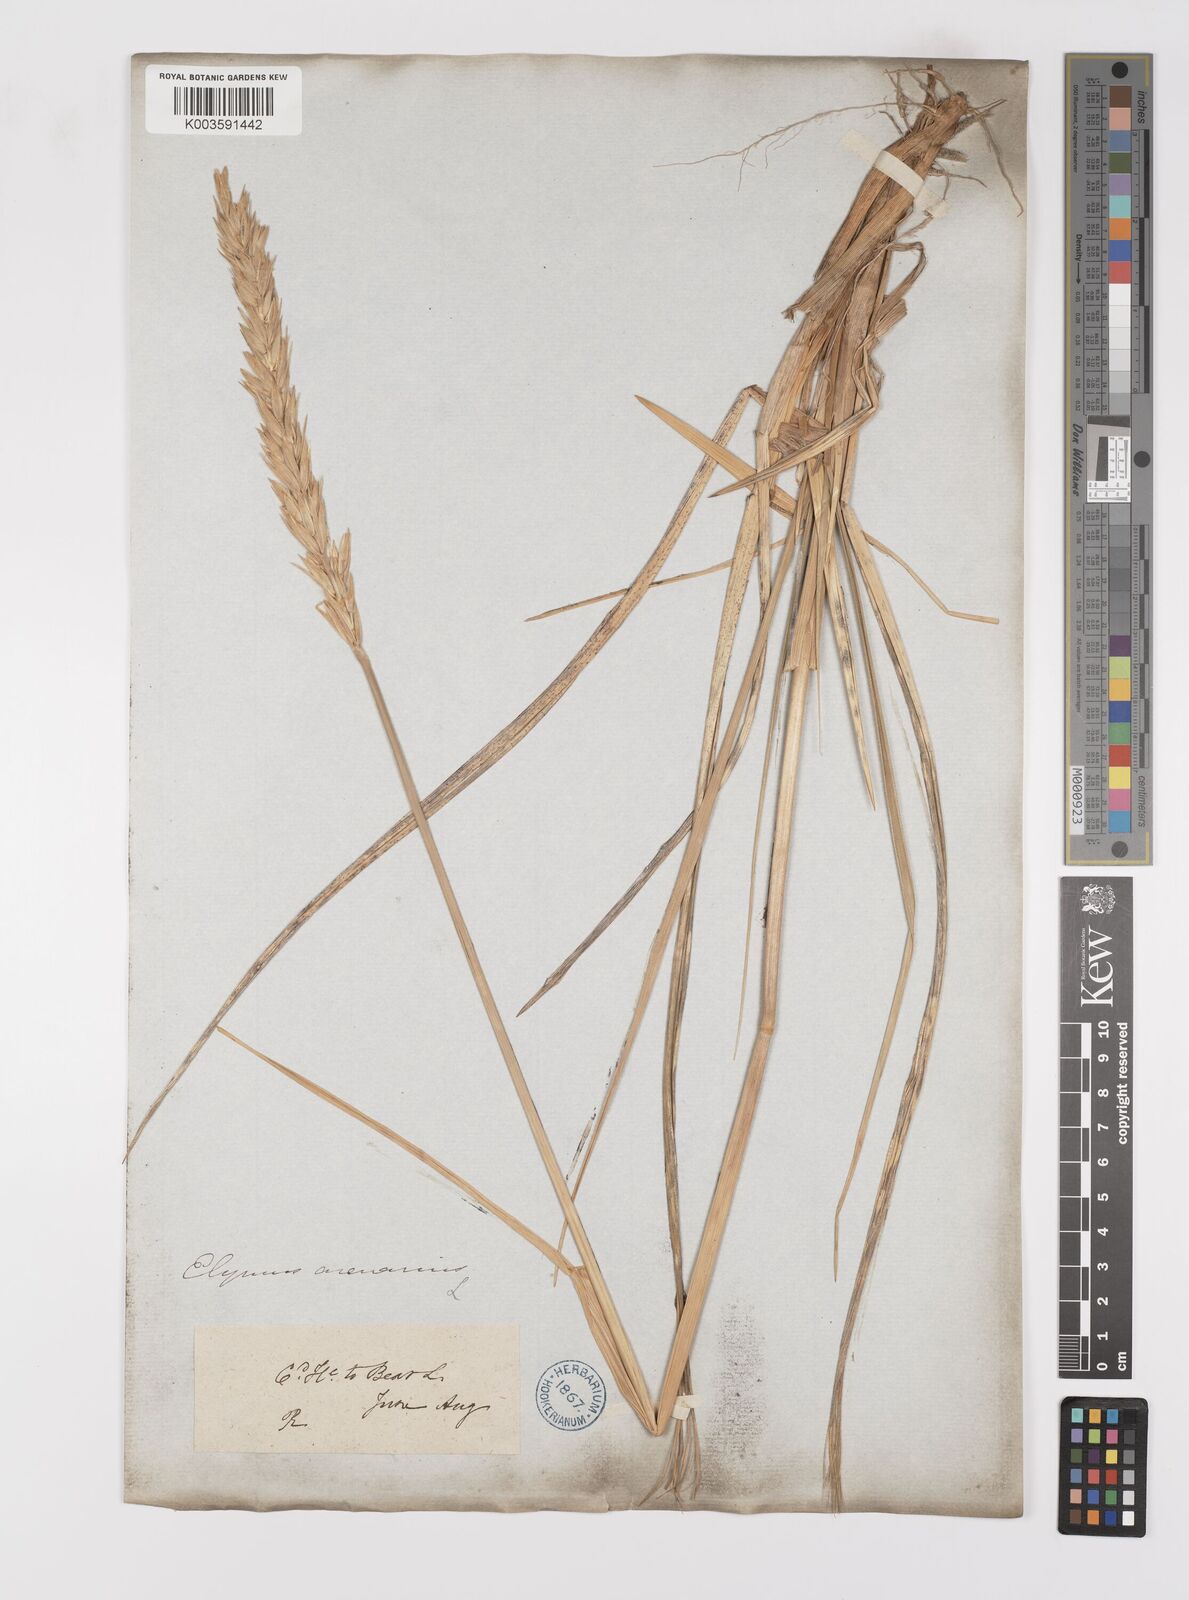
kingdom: Plantae
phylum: Tracheophyta
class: Liliopsida
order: Poales
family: Poaceae
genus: Leymus
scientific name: Leymus mollis
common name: American dune grass
